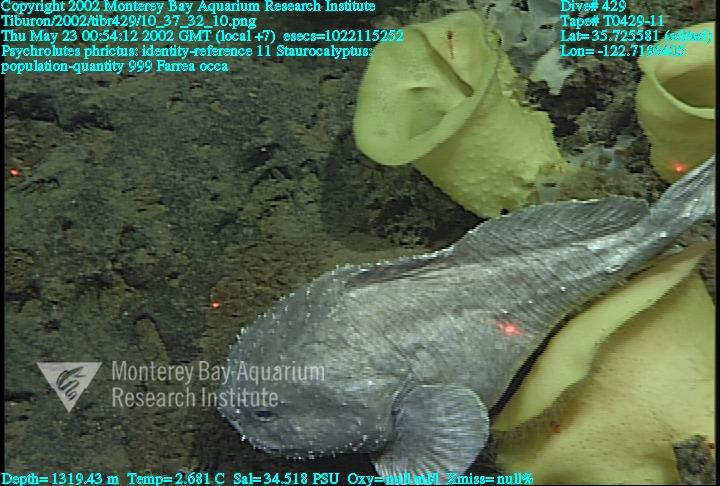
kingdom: Animalia
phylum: Porifera
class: Hexactinellida
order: Lyssacinosida
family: Rossellidae
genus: Staurocalyptus
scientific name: Staurocalyptus
